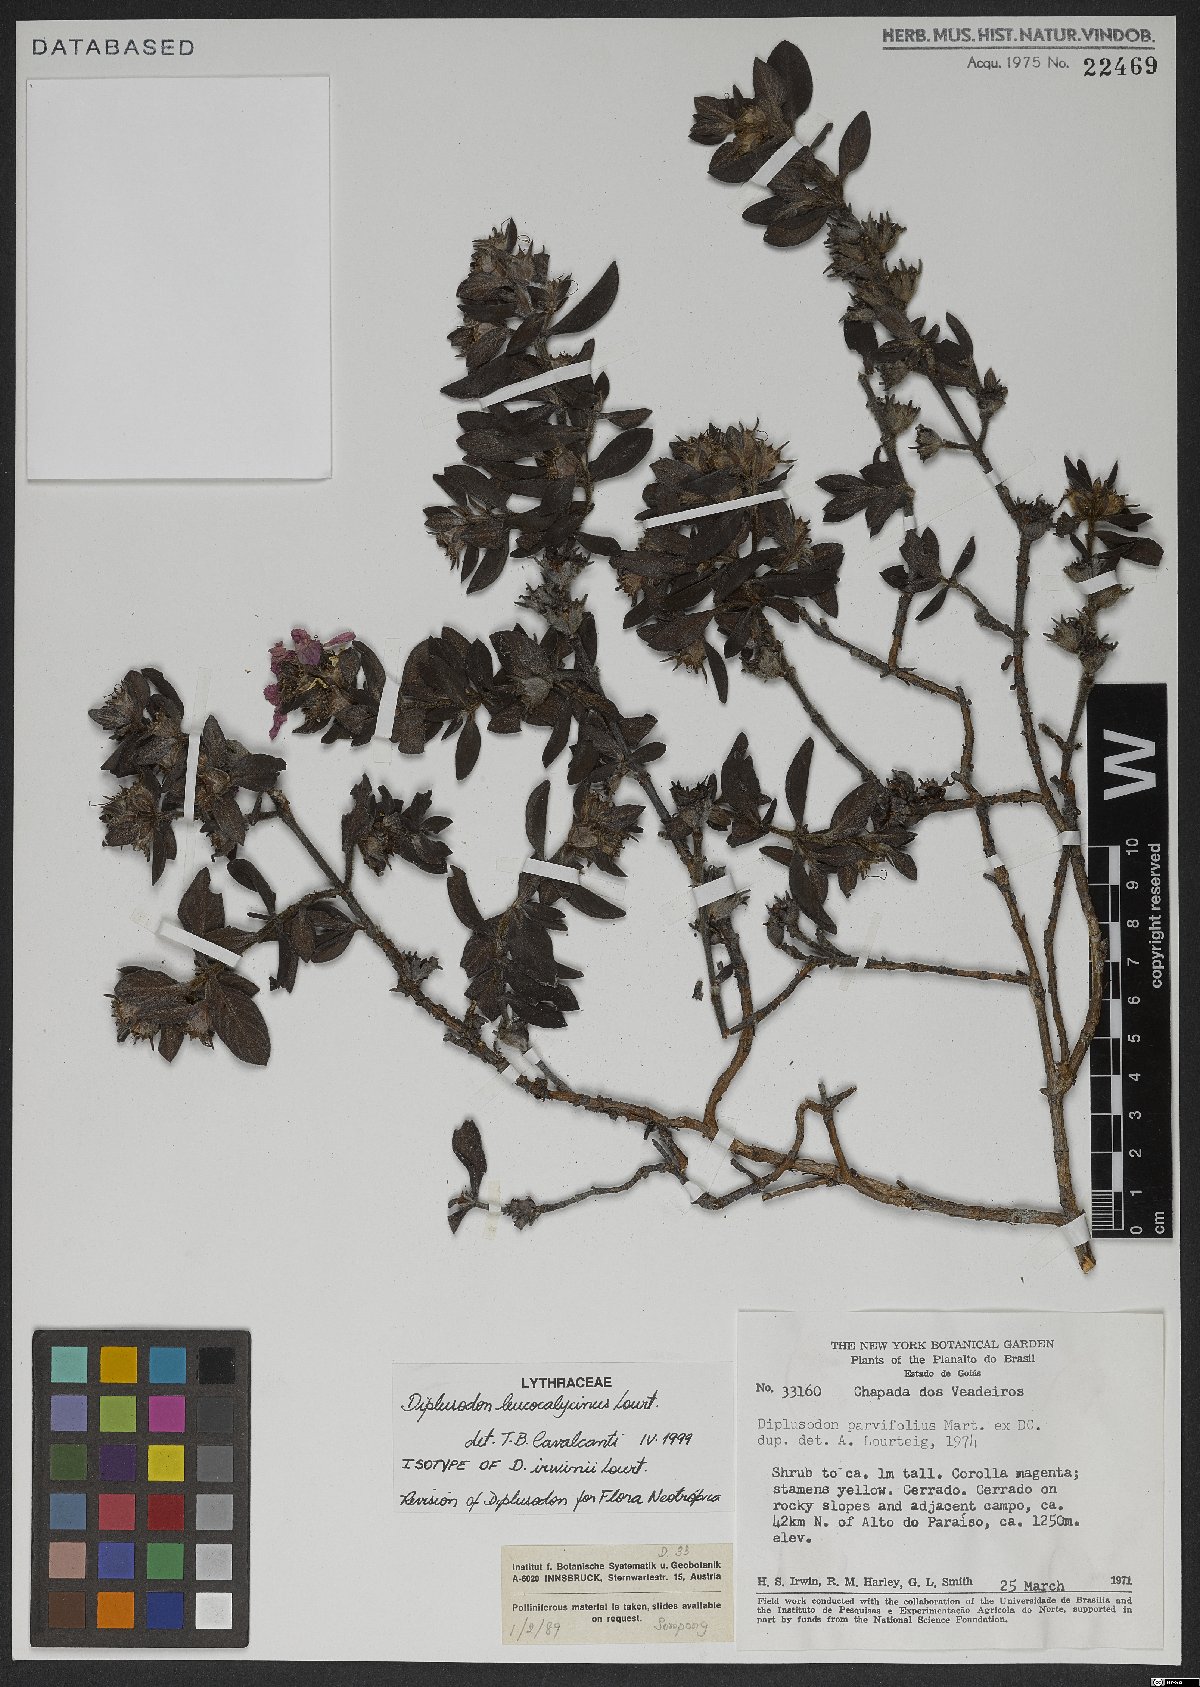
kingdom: Plantae
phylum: Tracheophyta
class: Magnoliopsida
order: Myrtales
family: Lythraceae
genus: Diplusodon
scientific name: Diplusodon leucocalycinus
